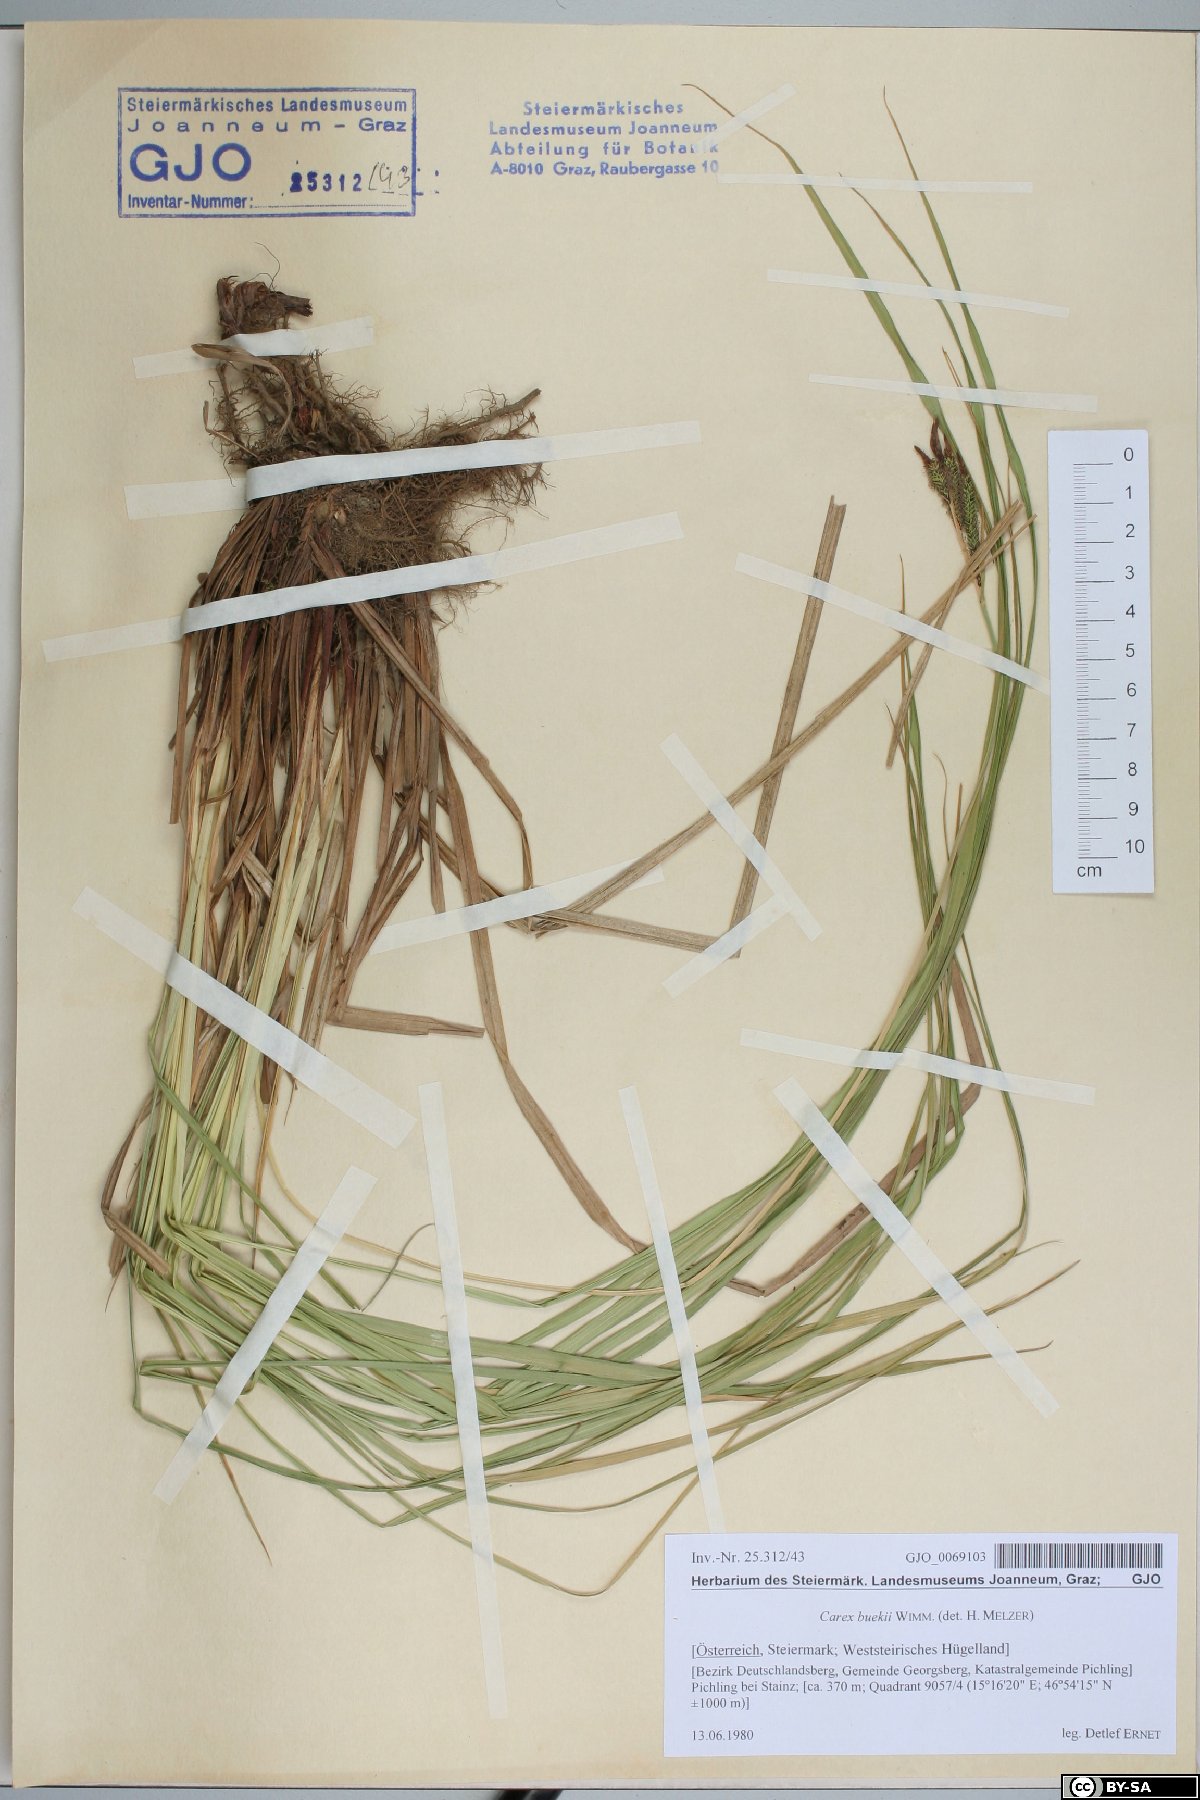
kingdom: Plantae
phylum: Tracheophyta
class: Liliopsida
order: Poales
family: Cyperaceae
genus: Carex
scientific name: Carex buekii
